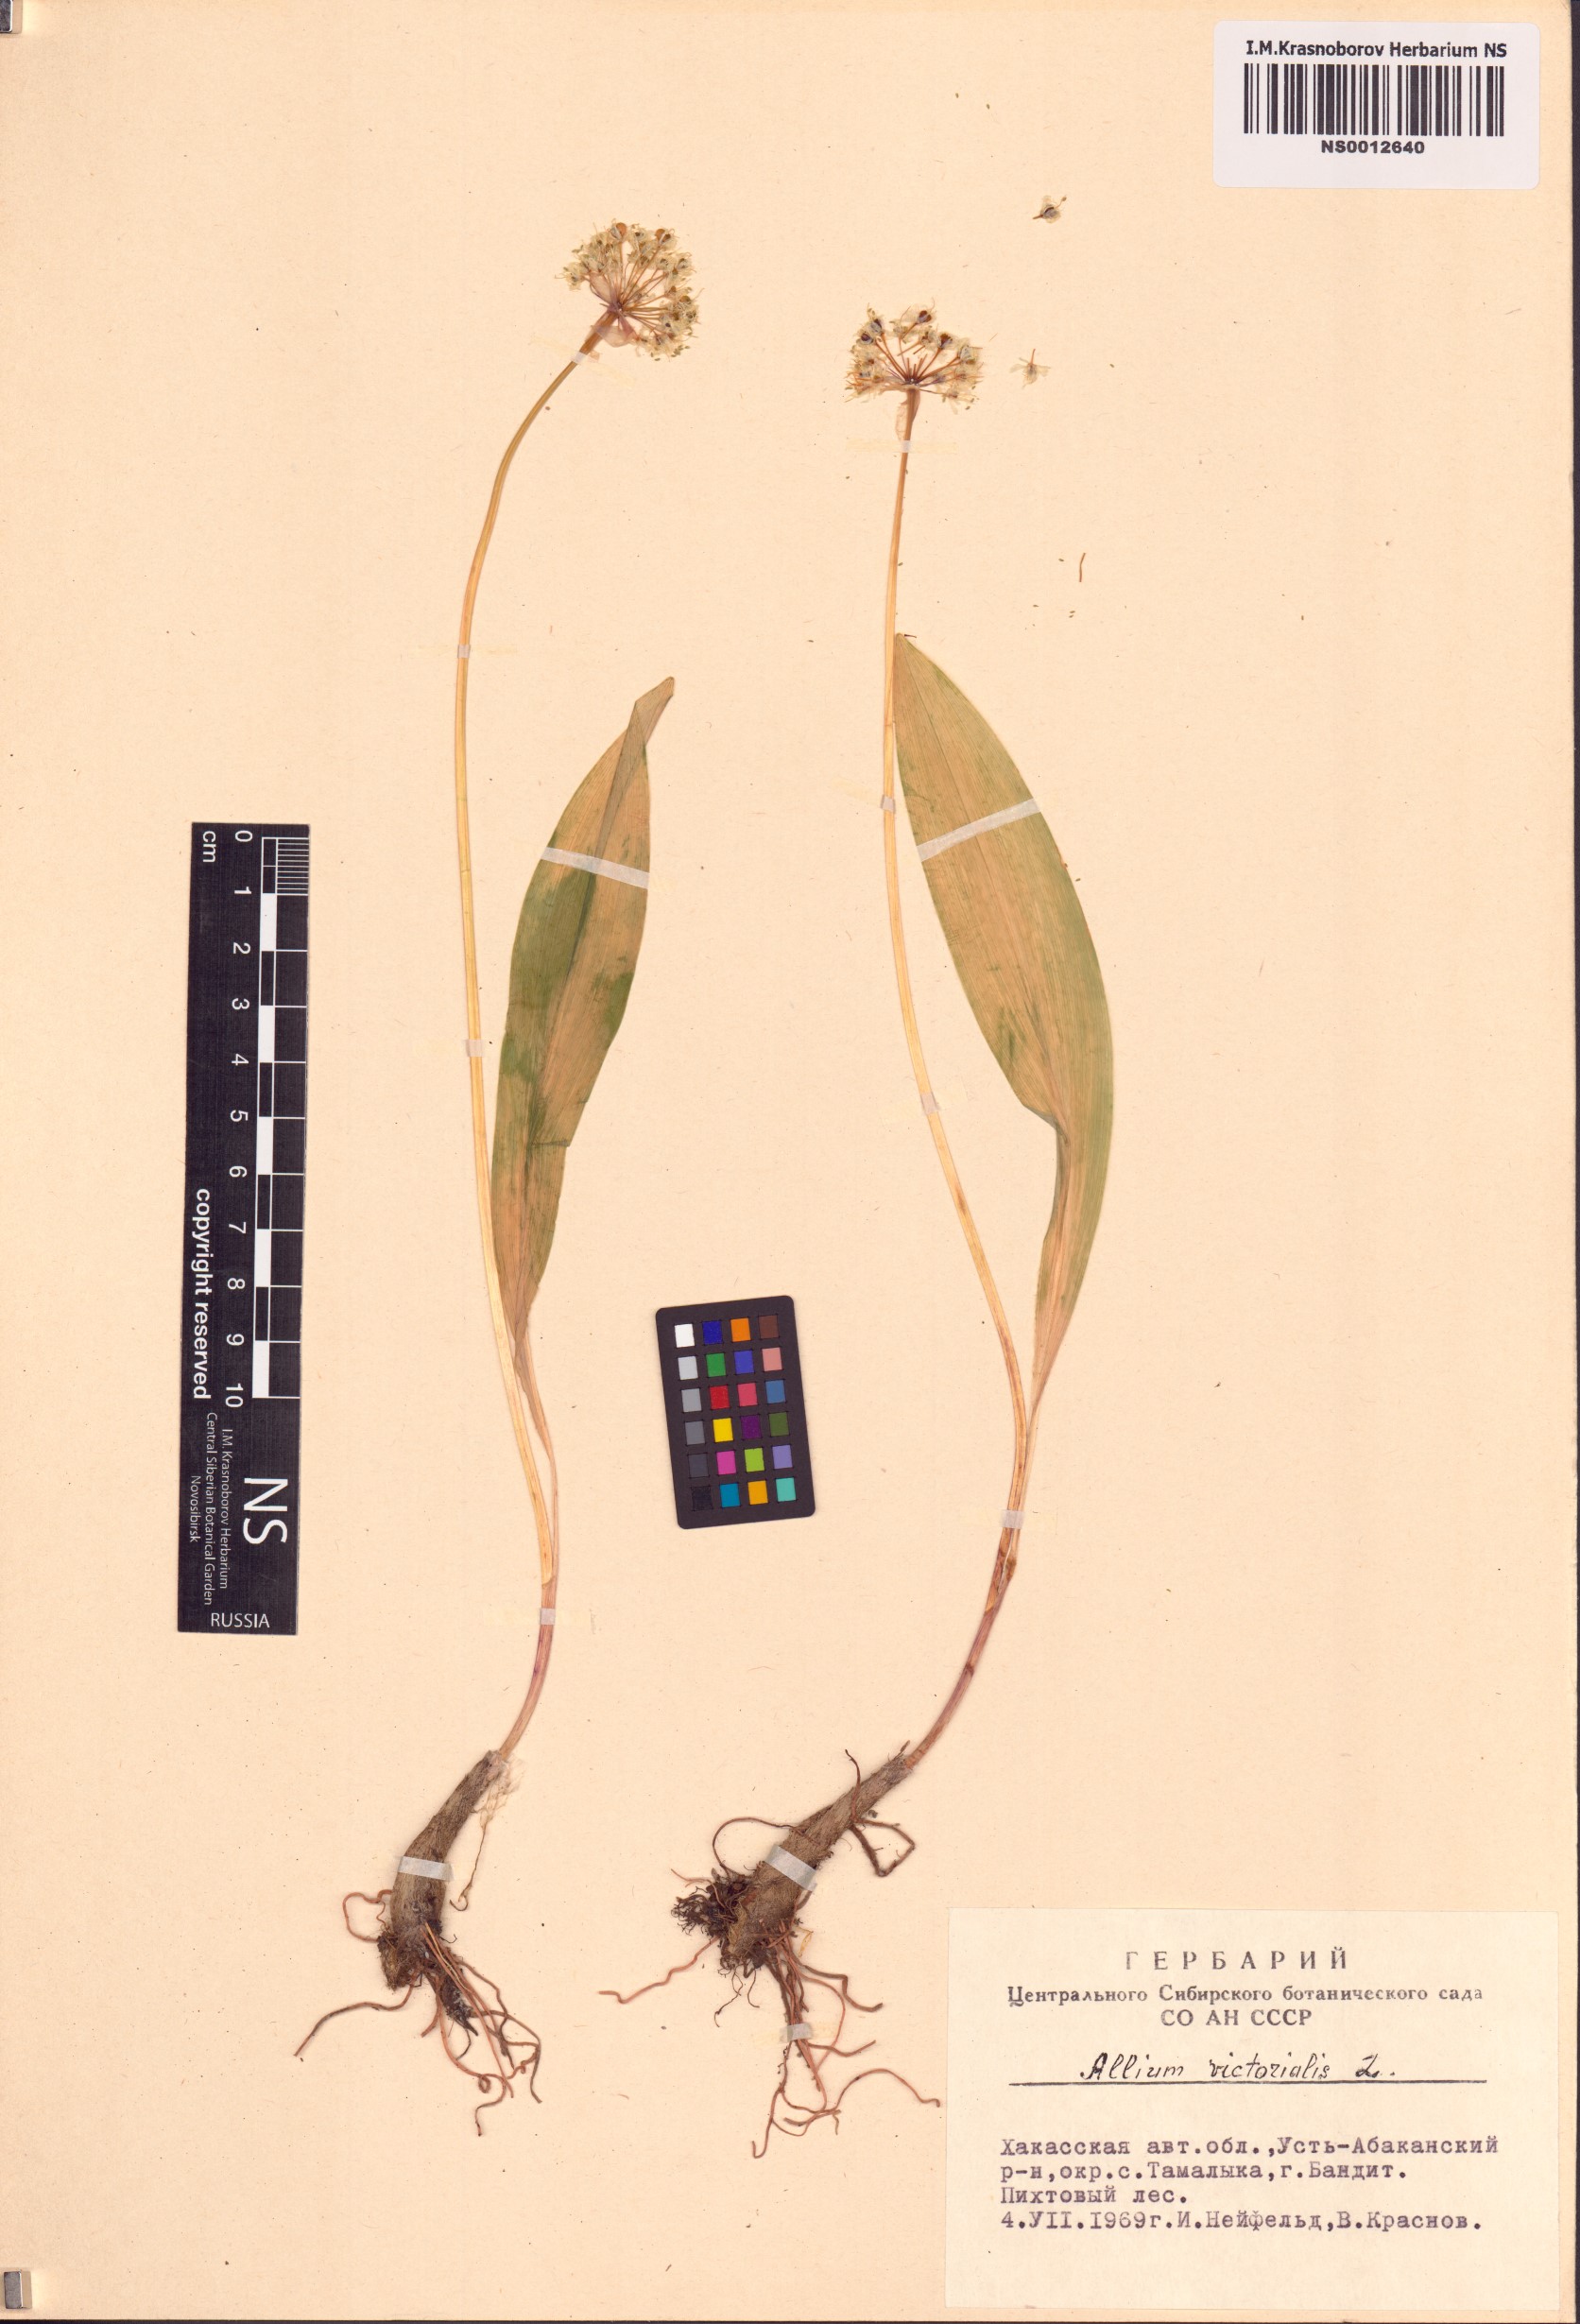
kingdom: Plantae
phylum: Tracheophyta
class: Liliopsida
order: Asparagales
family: Amaryllidaceae
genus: Allium
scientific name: Allium microdictyon
